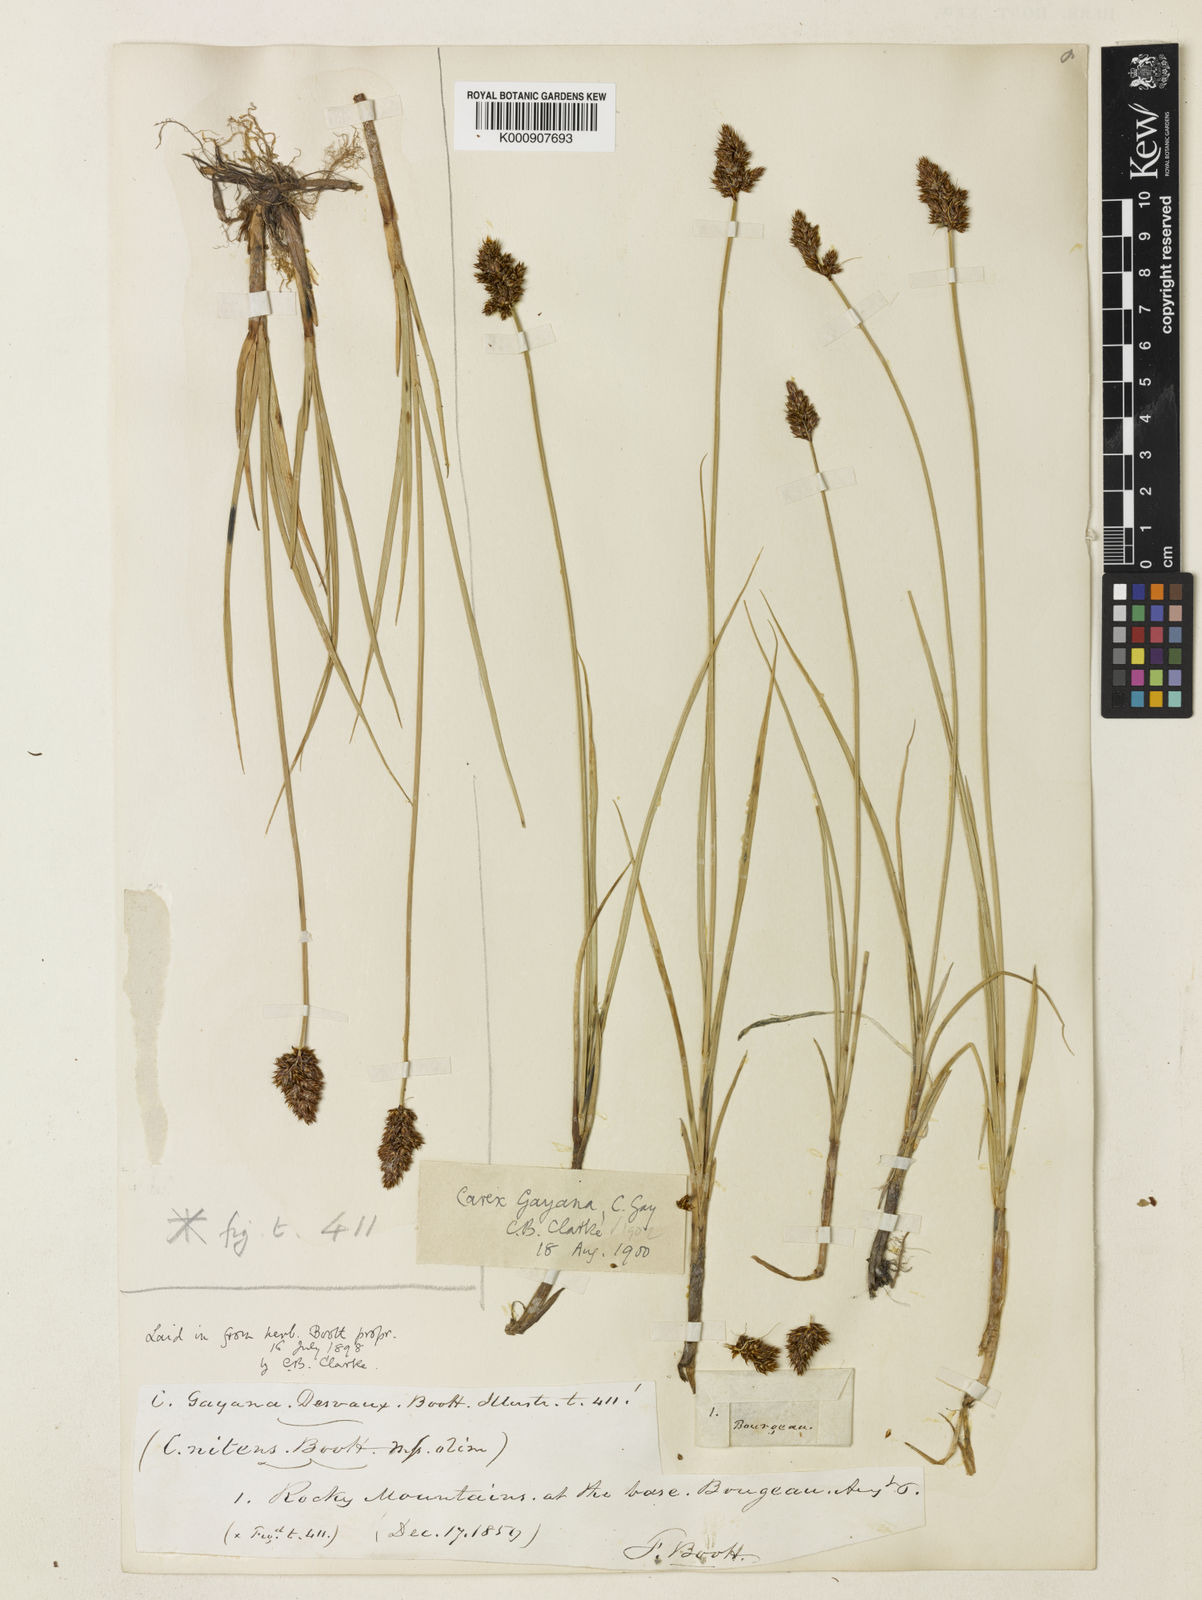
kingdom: Plantae
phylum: Tracheophyta
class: Liliopsida
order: Poales
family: Cyperaceae
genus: Carex
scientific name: Carex praegracilis
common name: Black creeper sedge
